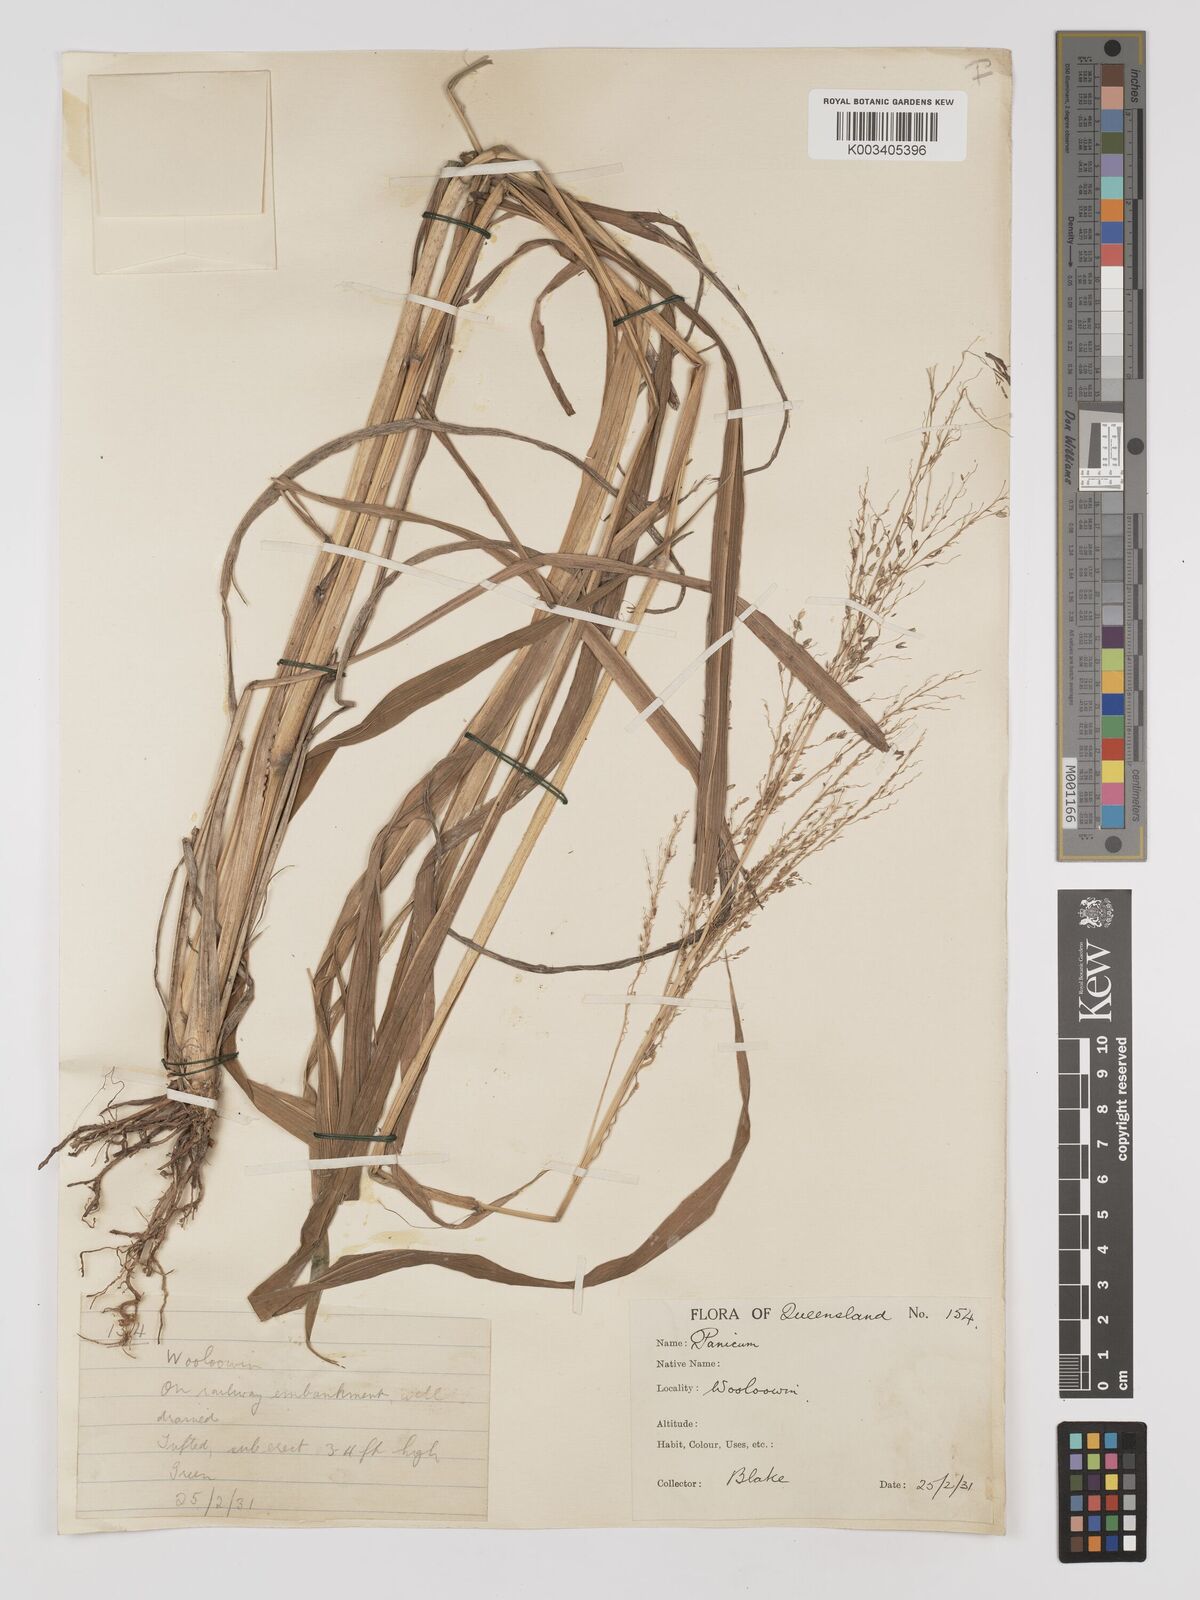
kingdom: Plantae
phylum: Tracheophyta
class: Liliopsida
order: Poales
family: Poaceae
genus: Megathyrsus
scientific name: Megathyrsus maximus
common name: Guineagrass
